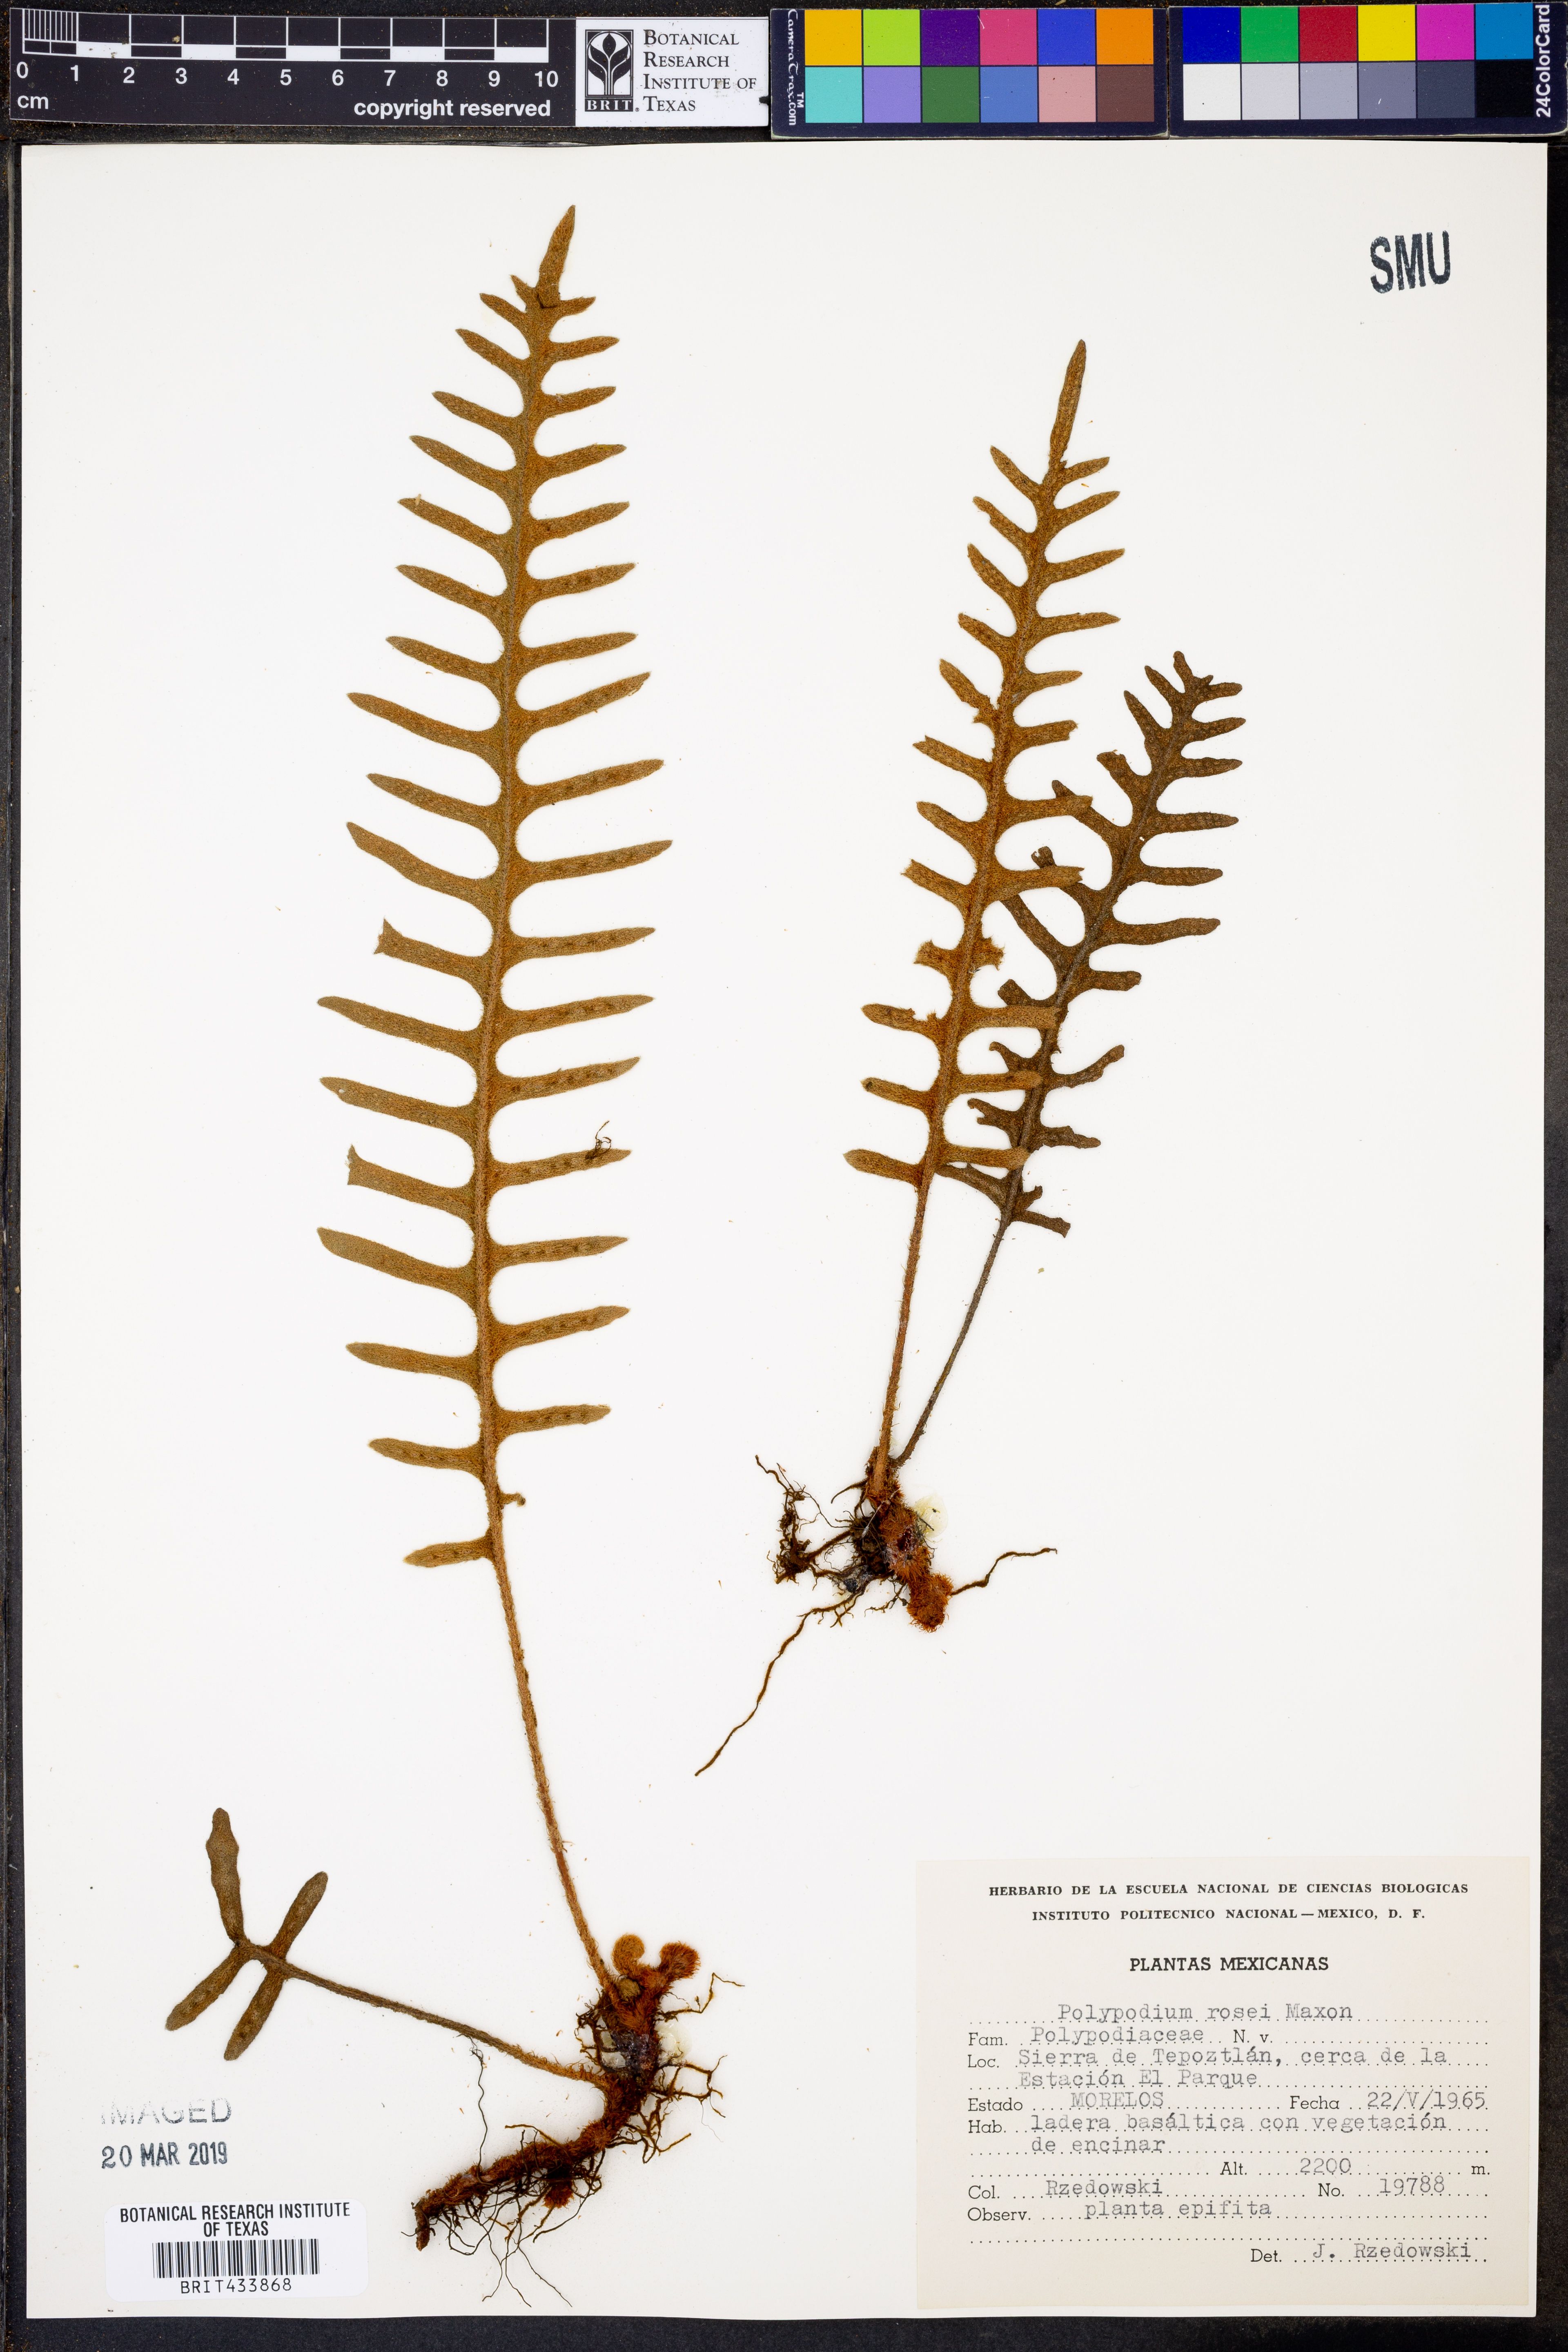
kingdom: Plantae
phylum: Tracheophyta
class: Polypodiopsida
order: Polypodiales
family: Polypodiaceae
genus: Pleopeltis
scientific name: Pleopeltis rosei
